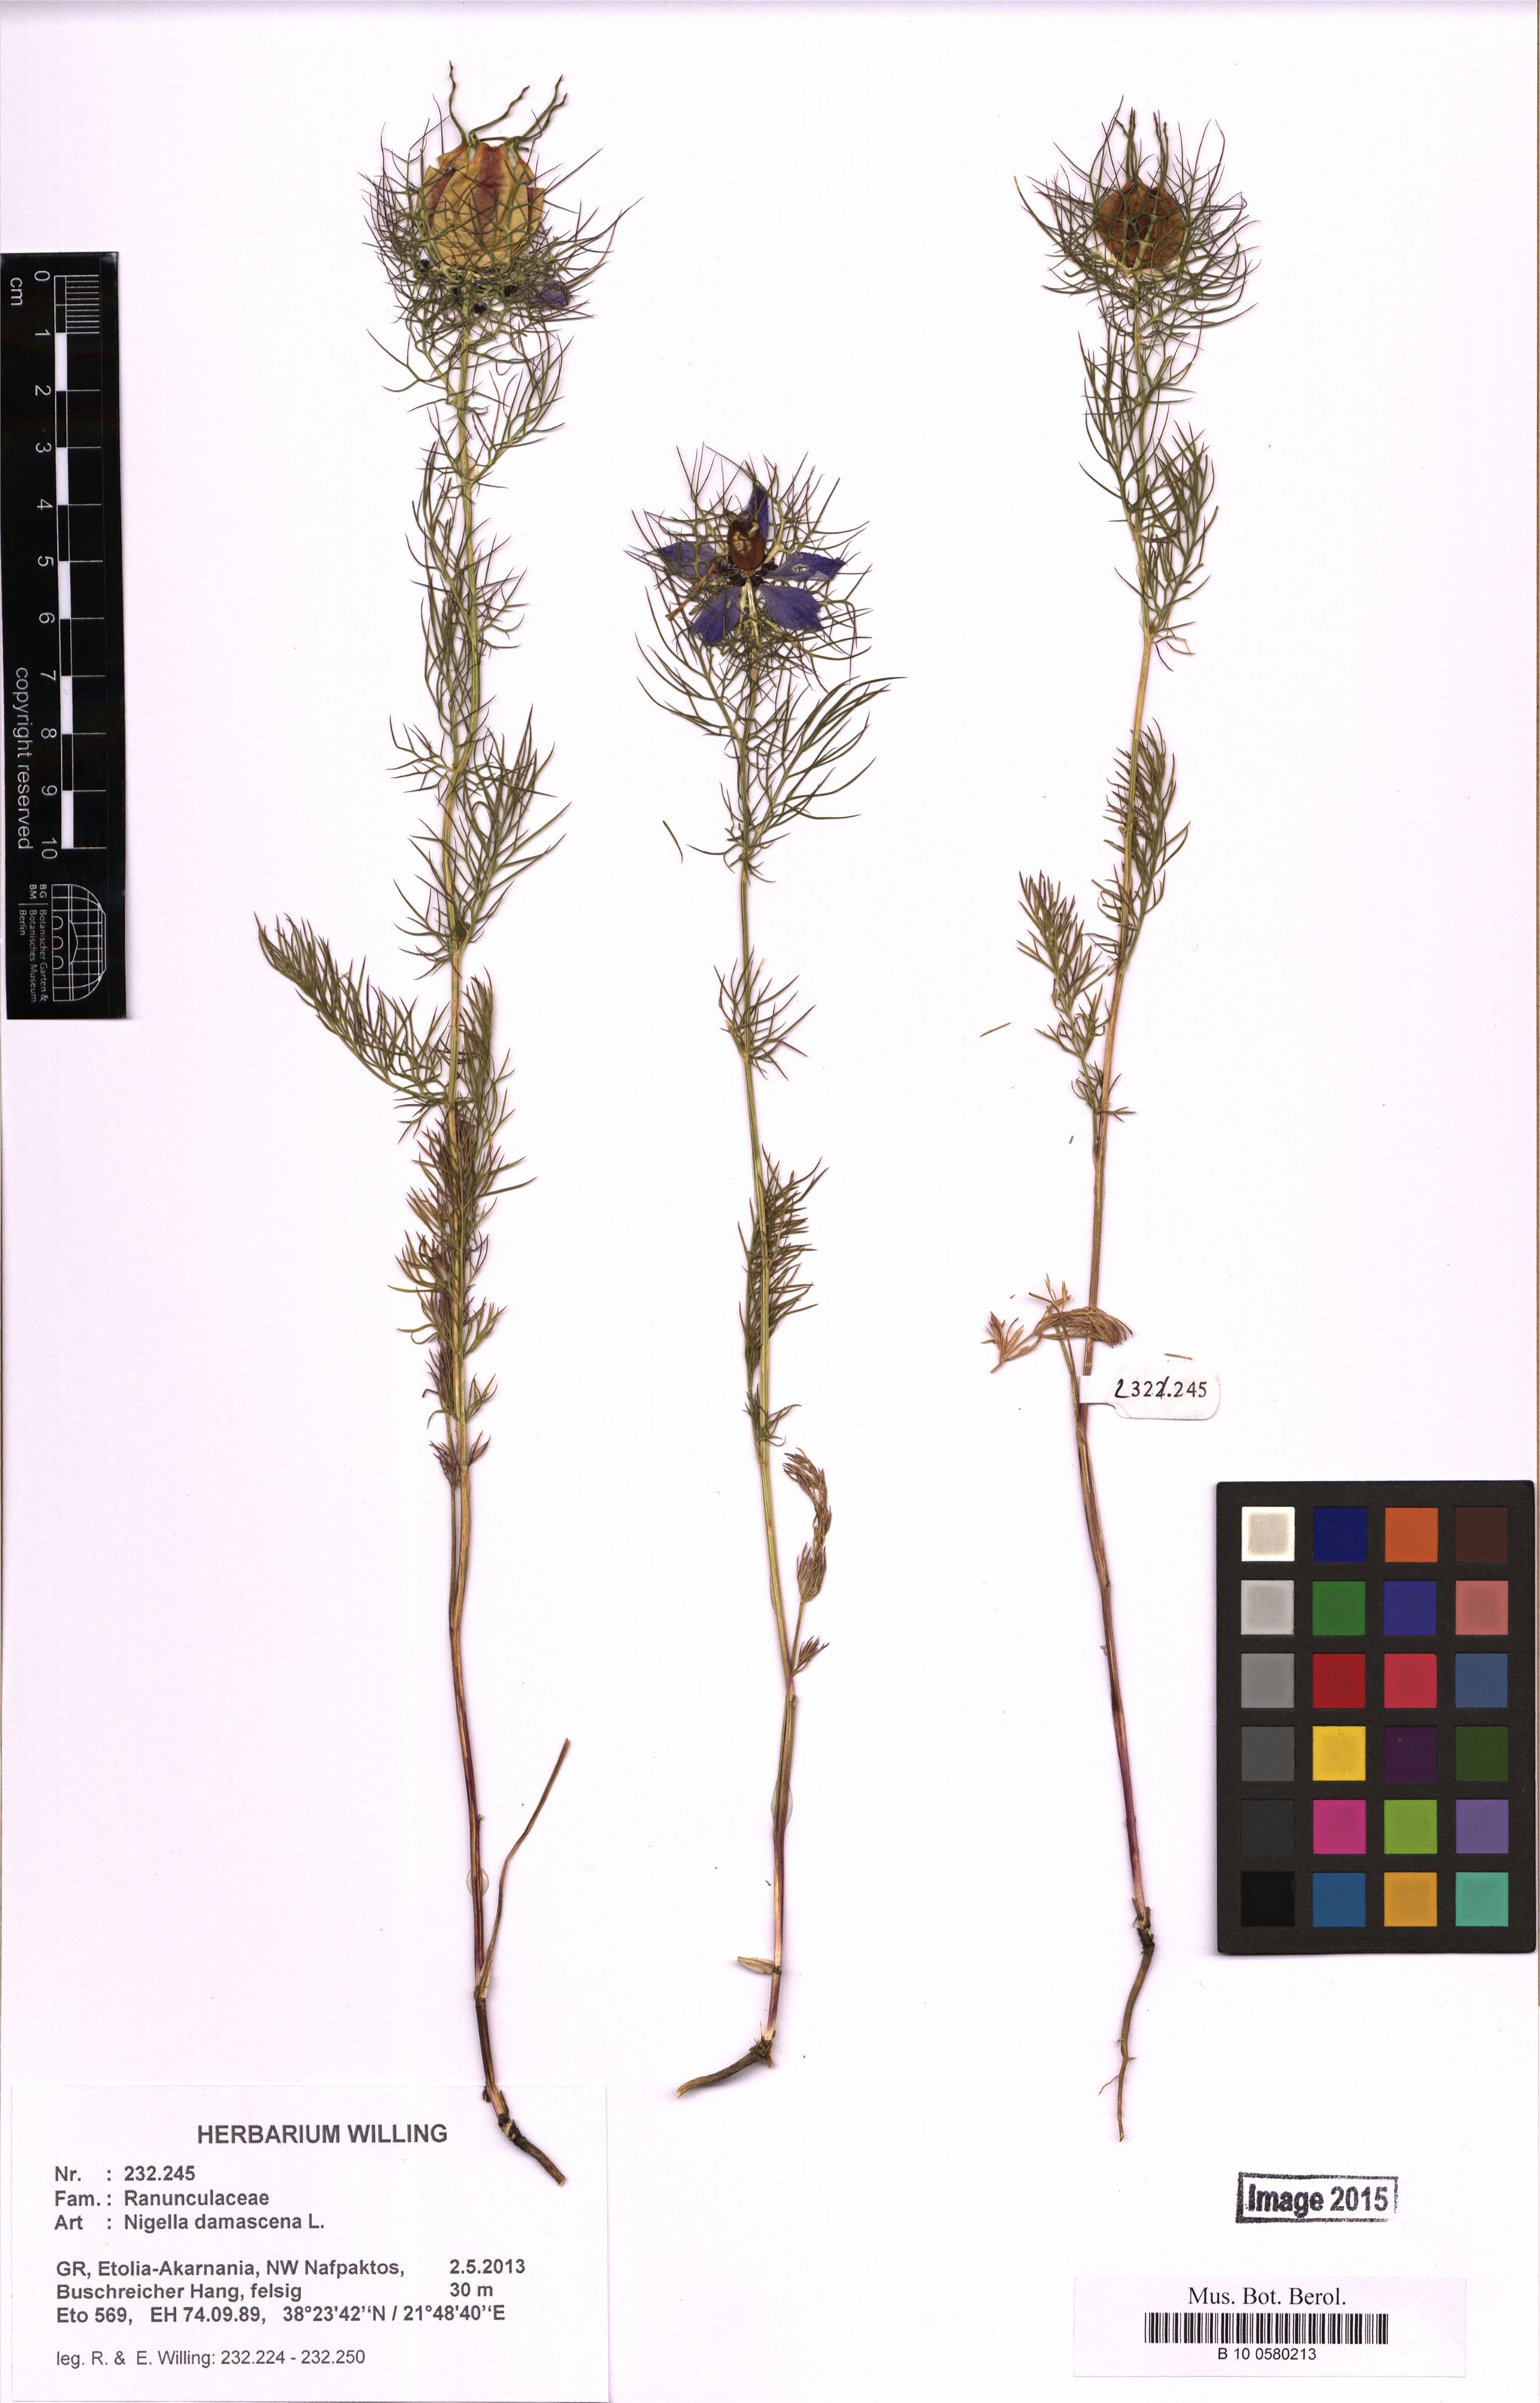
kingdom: Plantae
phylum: Tracheophyta
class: Magnoliopsida
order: Ranunculales
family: Ranunculaceae
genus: Nigella
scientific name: Nigella damascena
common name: Love-in-a-mist
